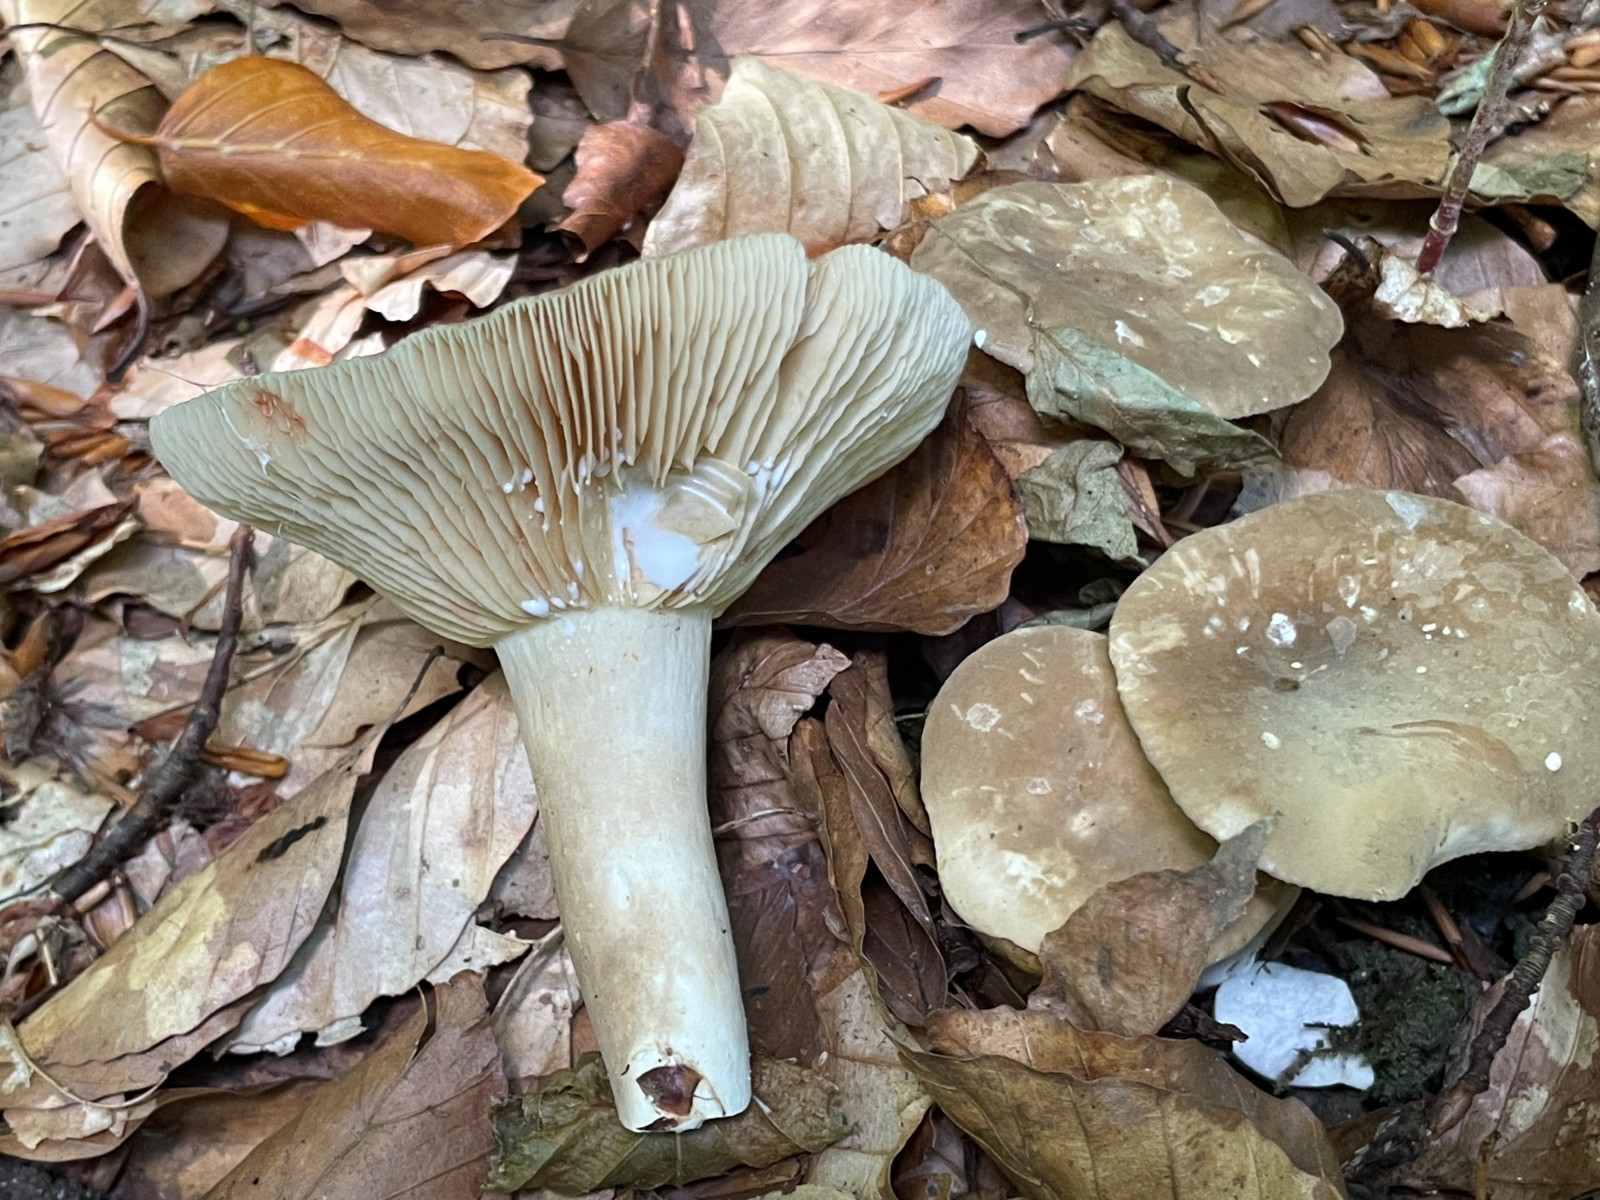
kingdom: Fungi
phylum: Basidiomycota
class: Agaricomycetes
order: Russulales
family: Russulaceae
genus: Lactarius
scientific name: Lactarius
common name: mælkehat
